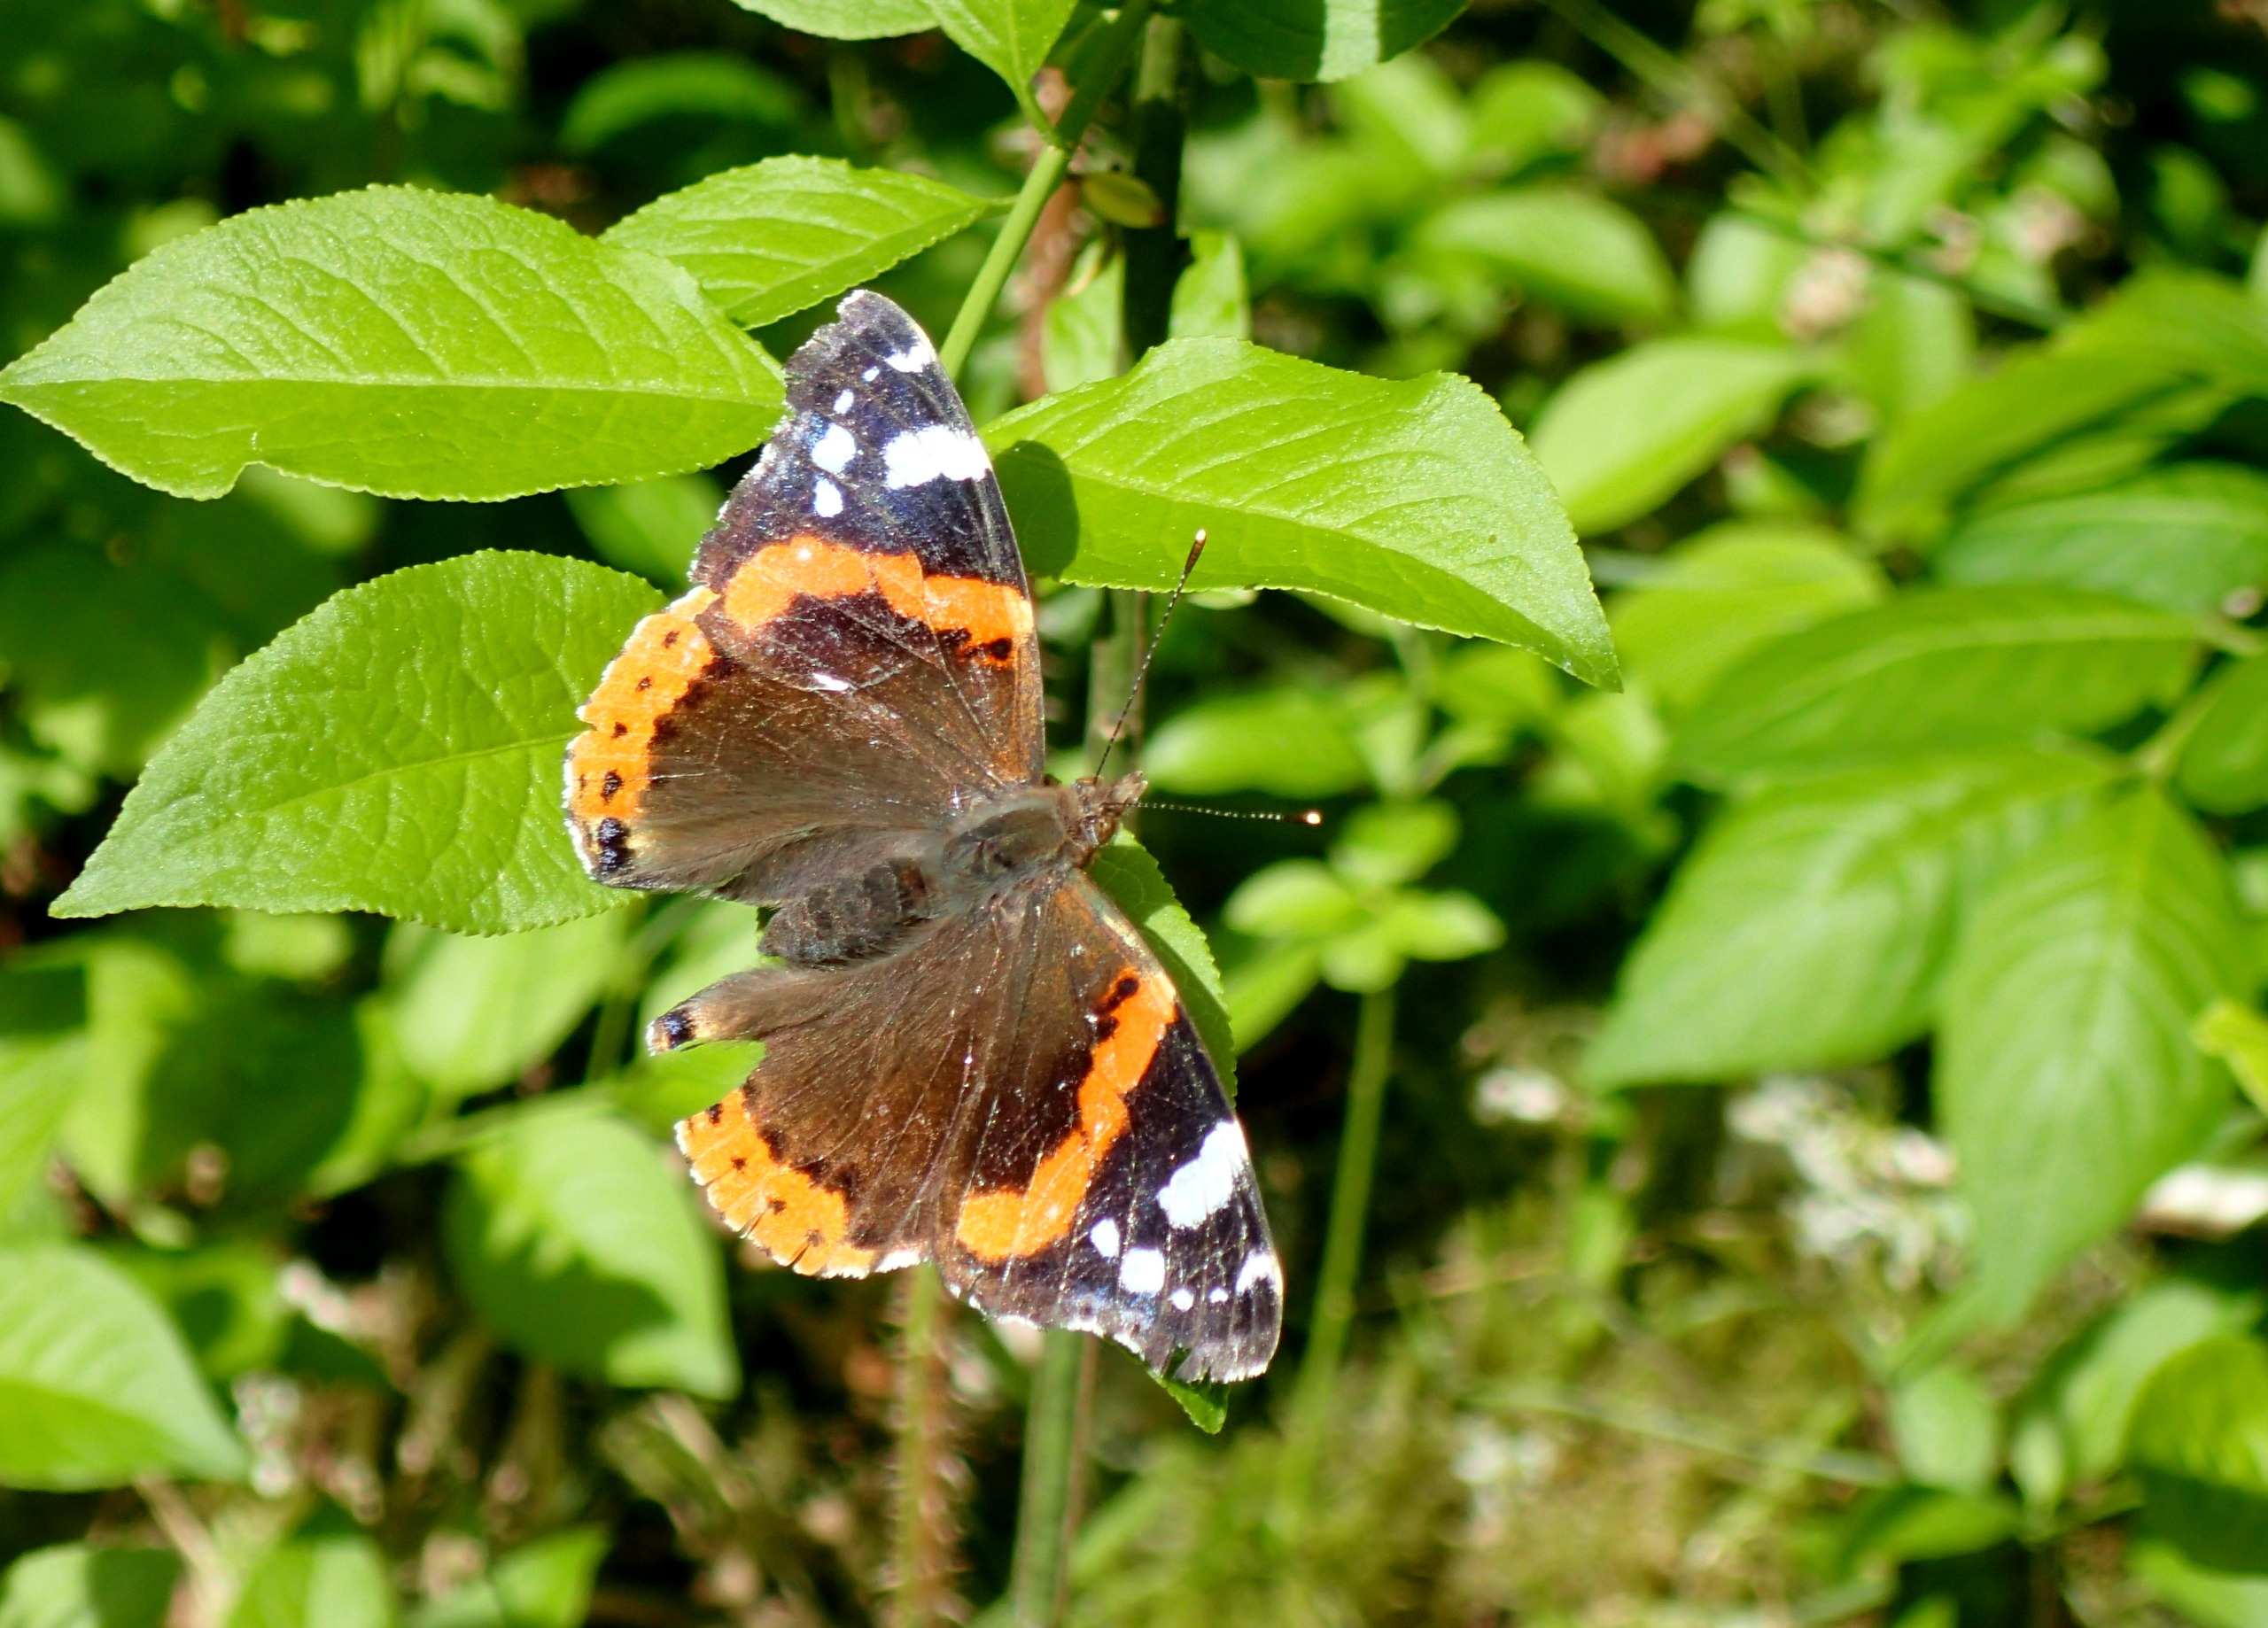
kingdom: Animalia
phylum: Arthropoda
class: Insecta
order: Lepidoptera
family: Nymphalidae
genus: Vanessa
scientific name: Vanessa atalanta
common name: Admiral
